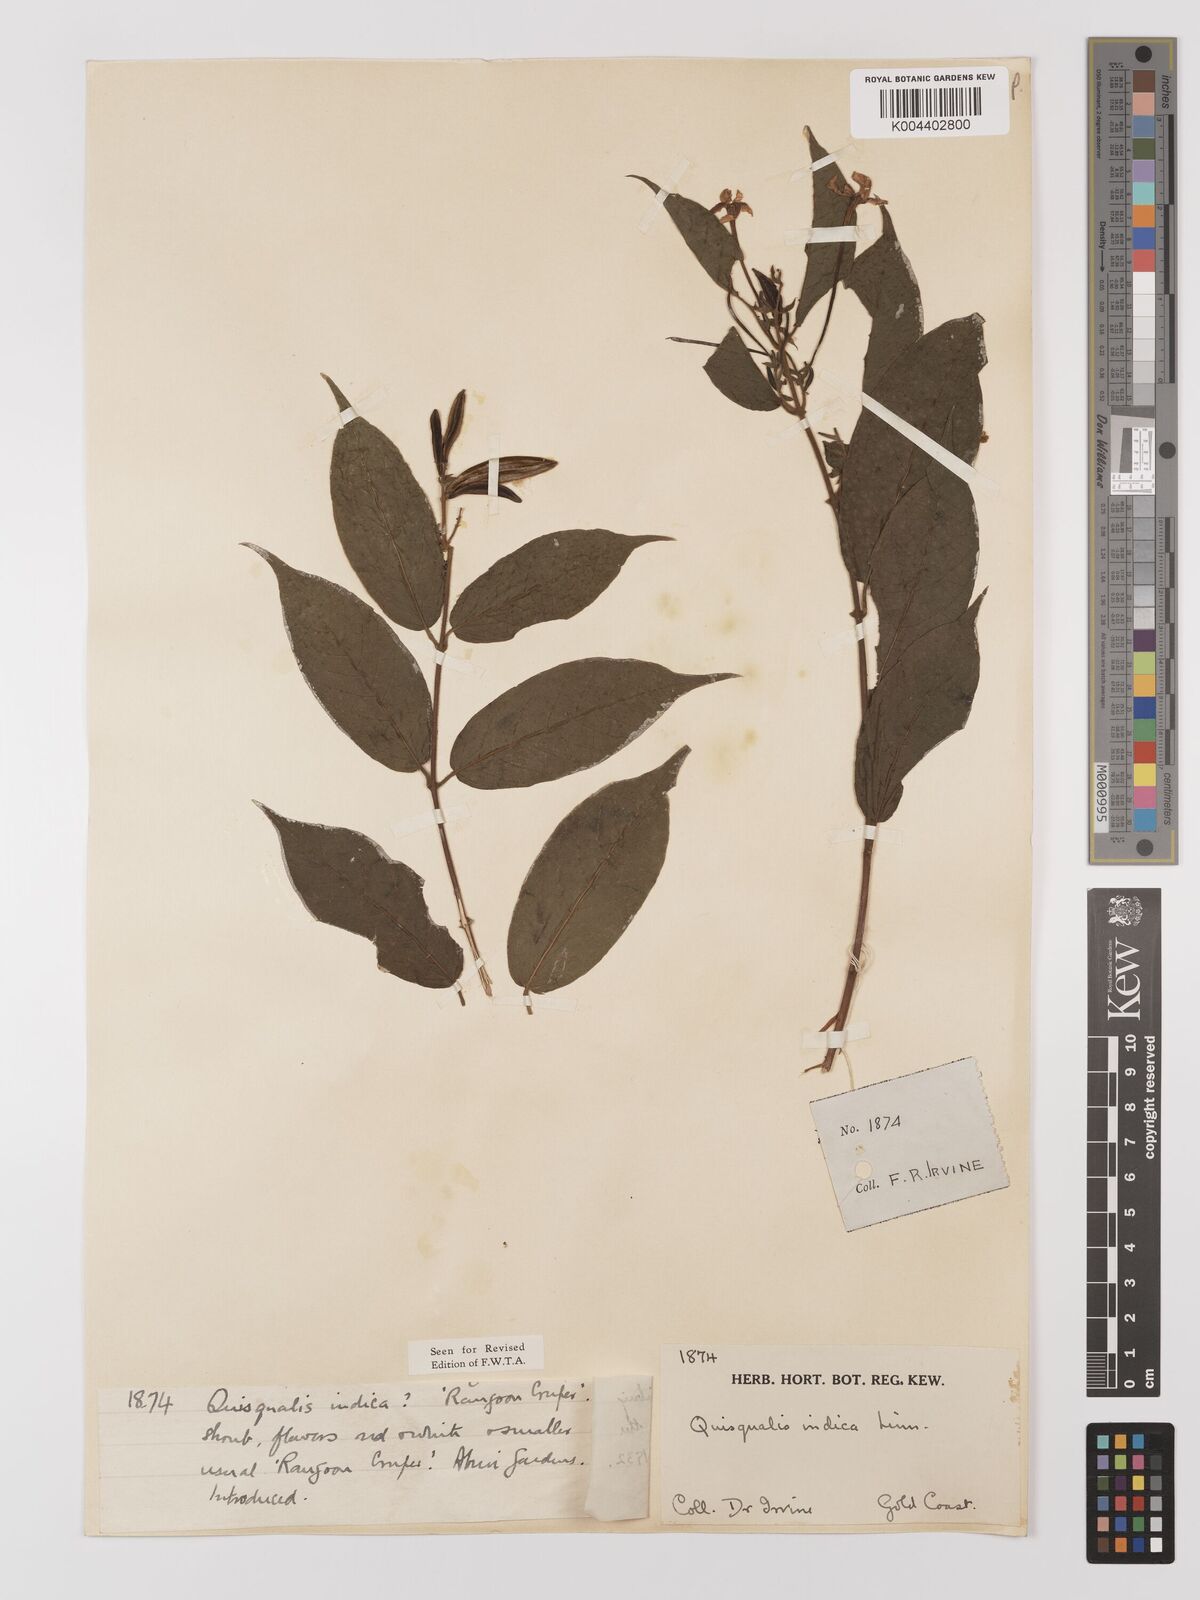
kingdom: Plantae
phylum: Tracheophyta
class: Magnoliopsida
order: Myrtales
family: Combretaceae
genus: Combretum
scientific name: Combretum
